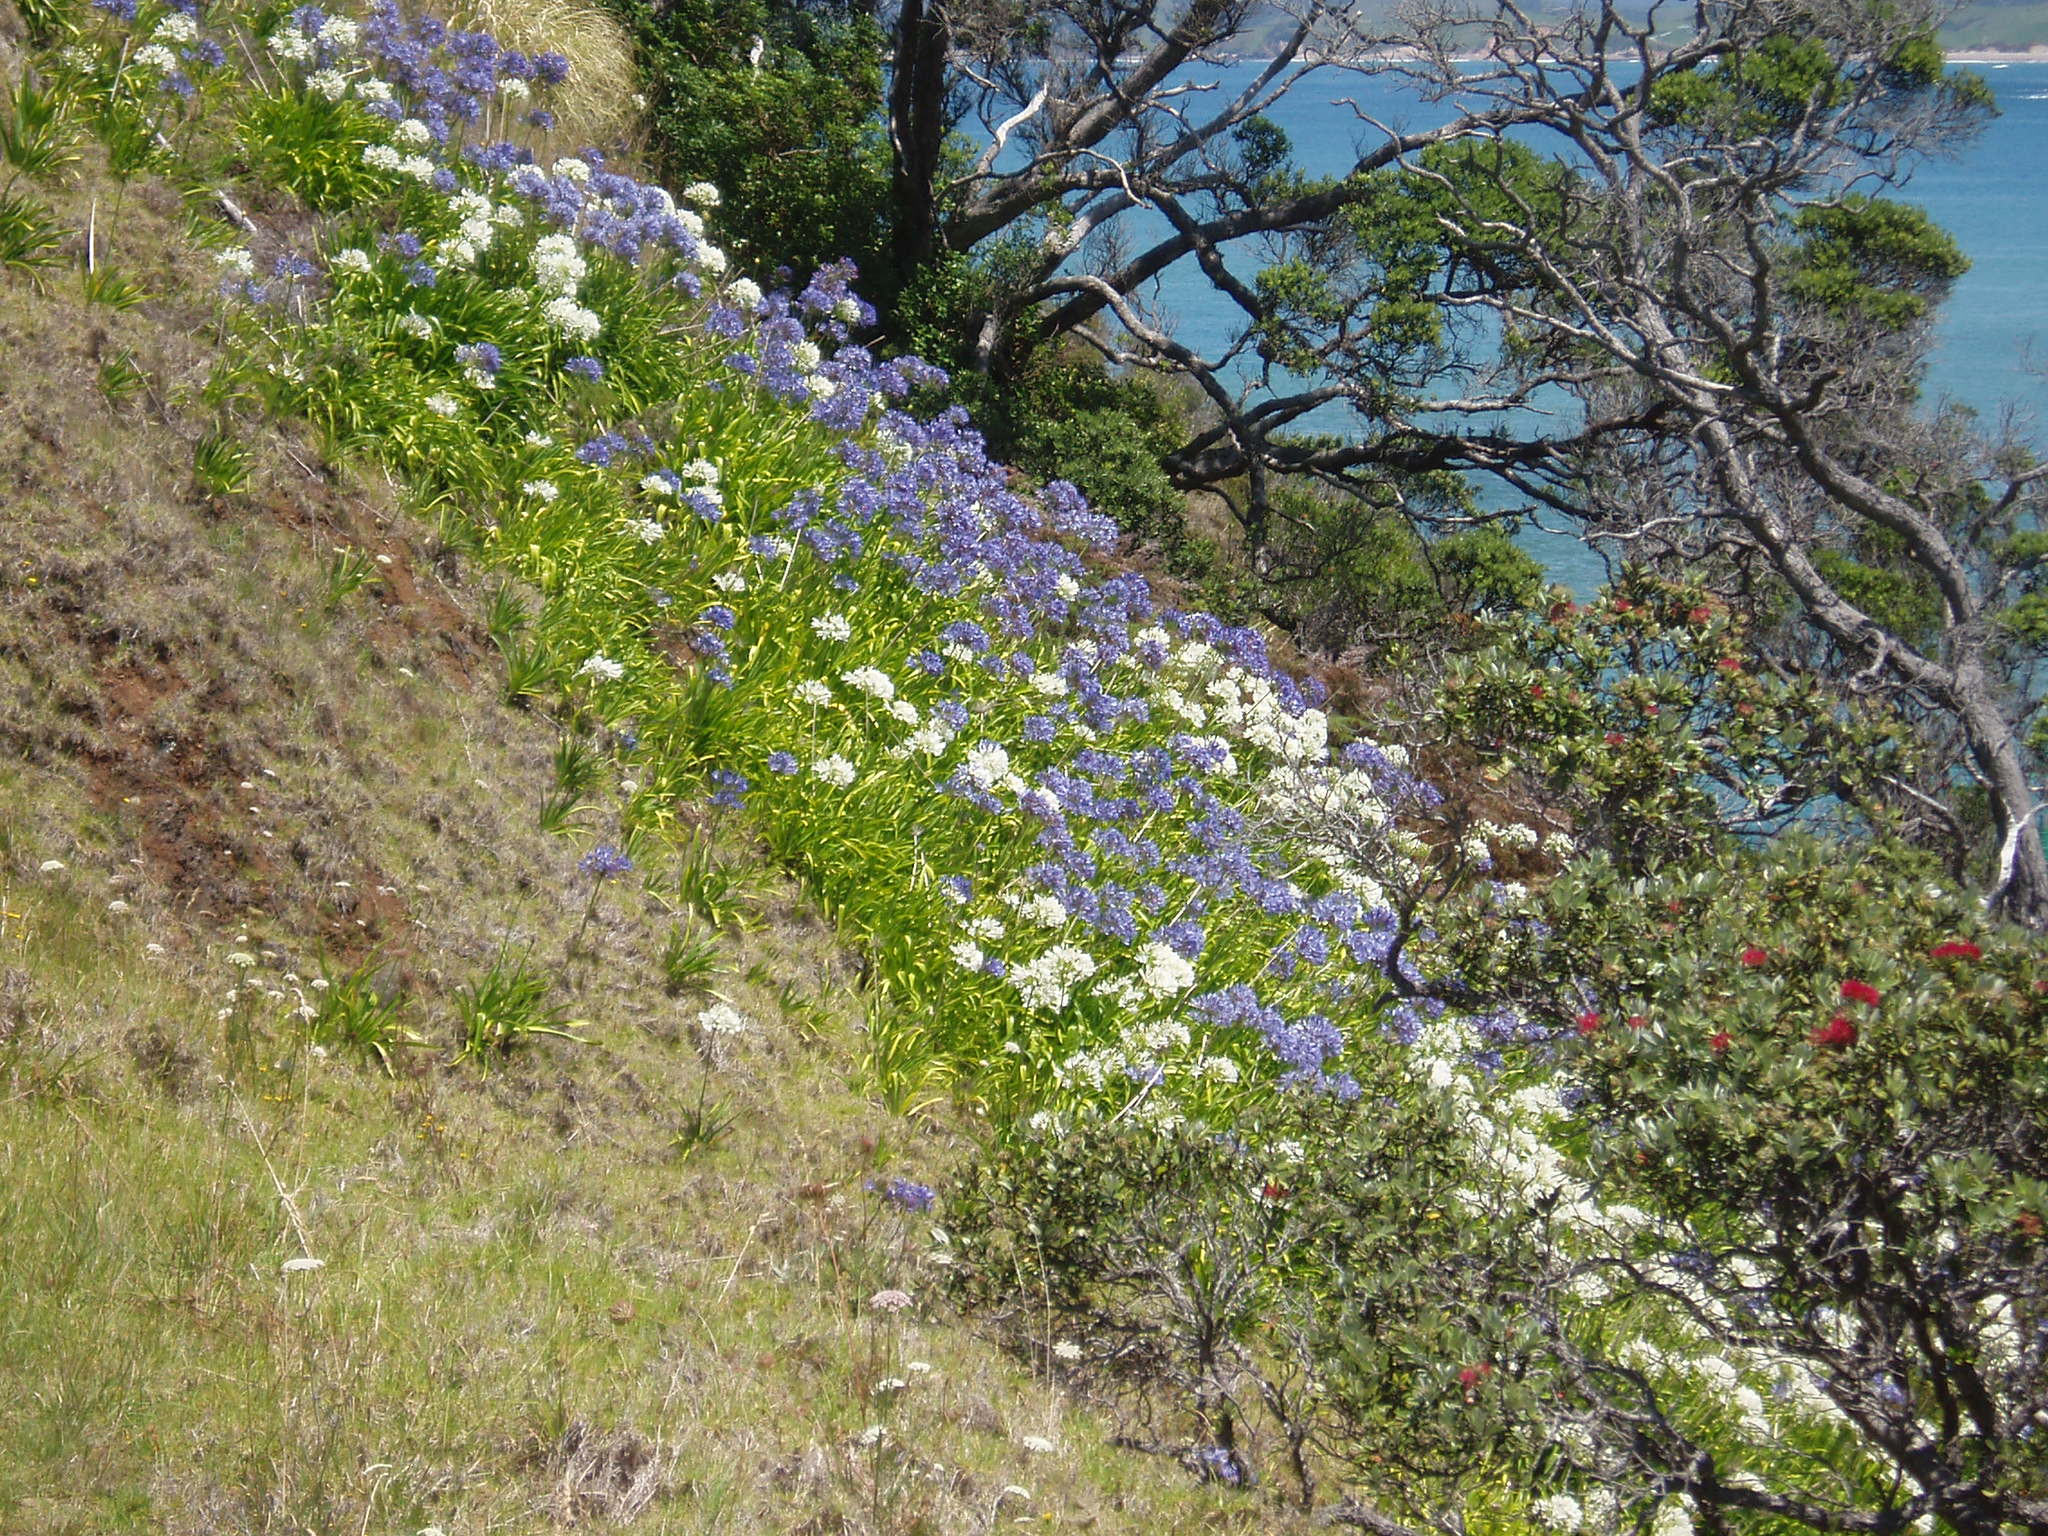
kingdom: Plantae
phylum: Tracheophyta
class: Liliopsida
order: Asparagales
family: Amaryllidaceae
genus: Agapanthus
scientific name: Agapanthus praecox
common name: African-lily
